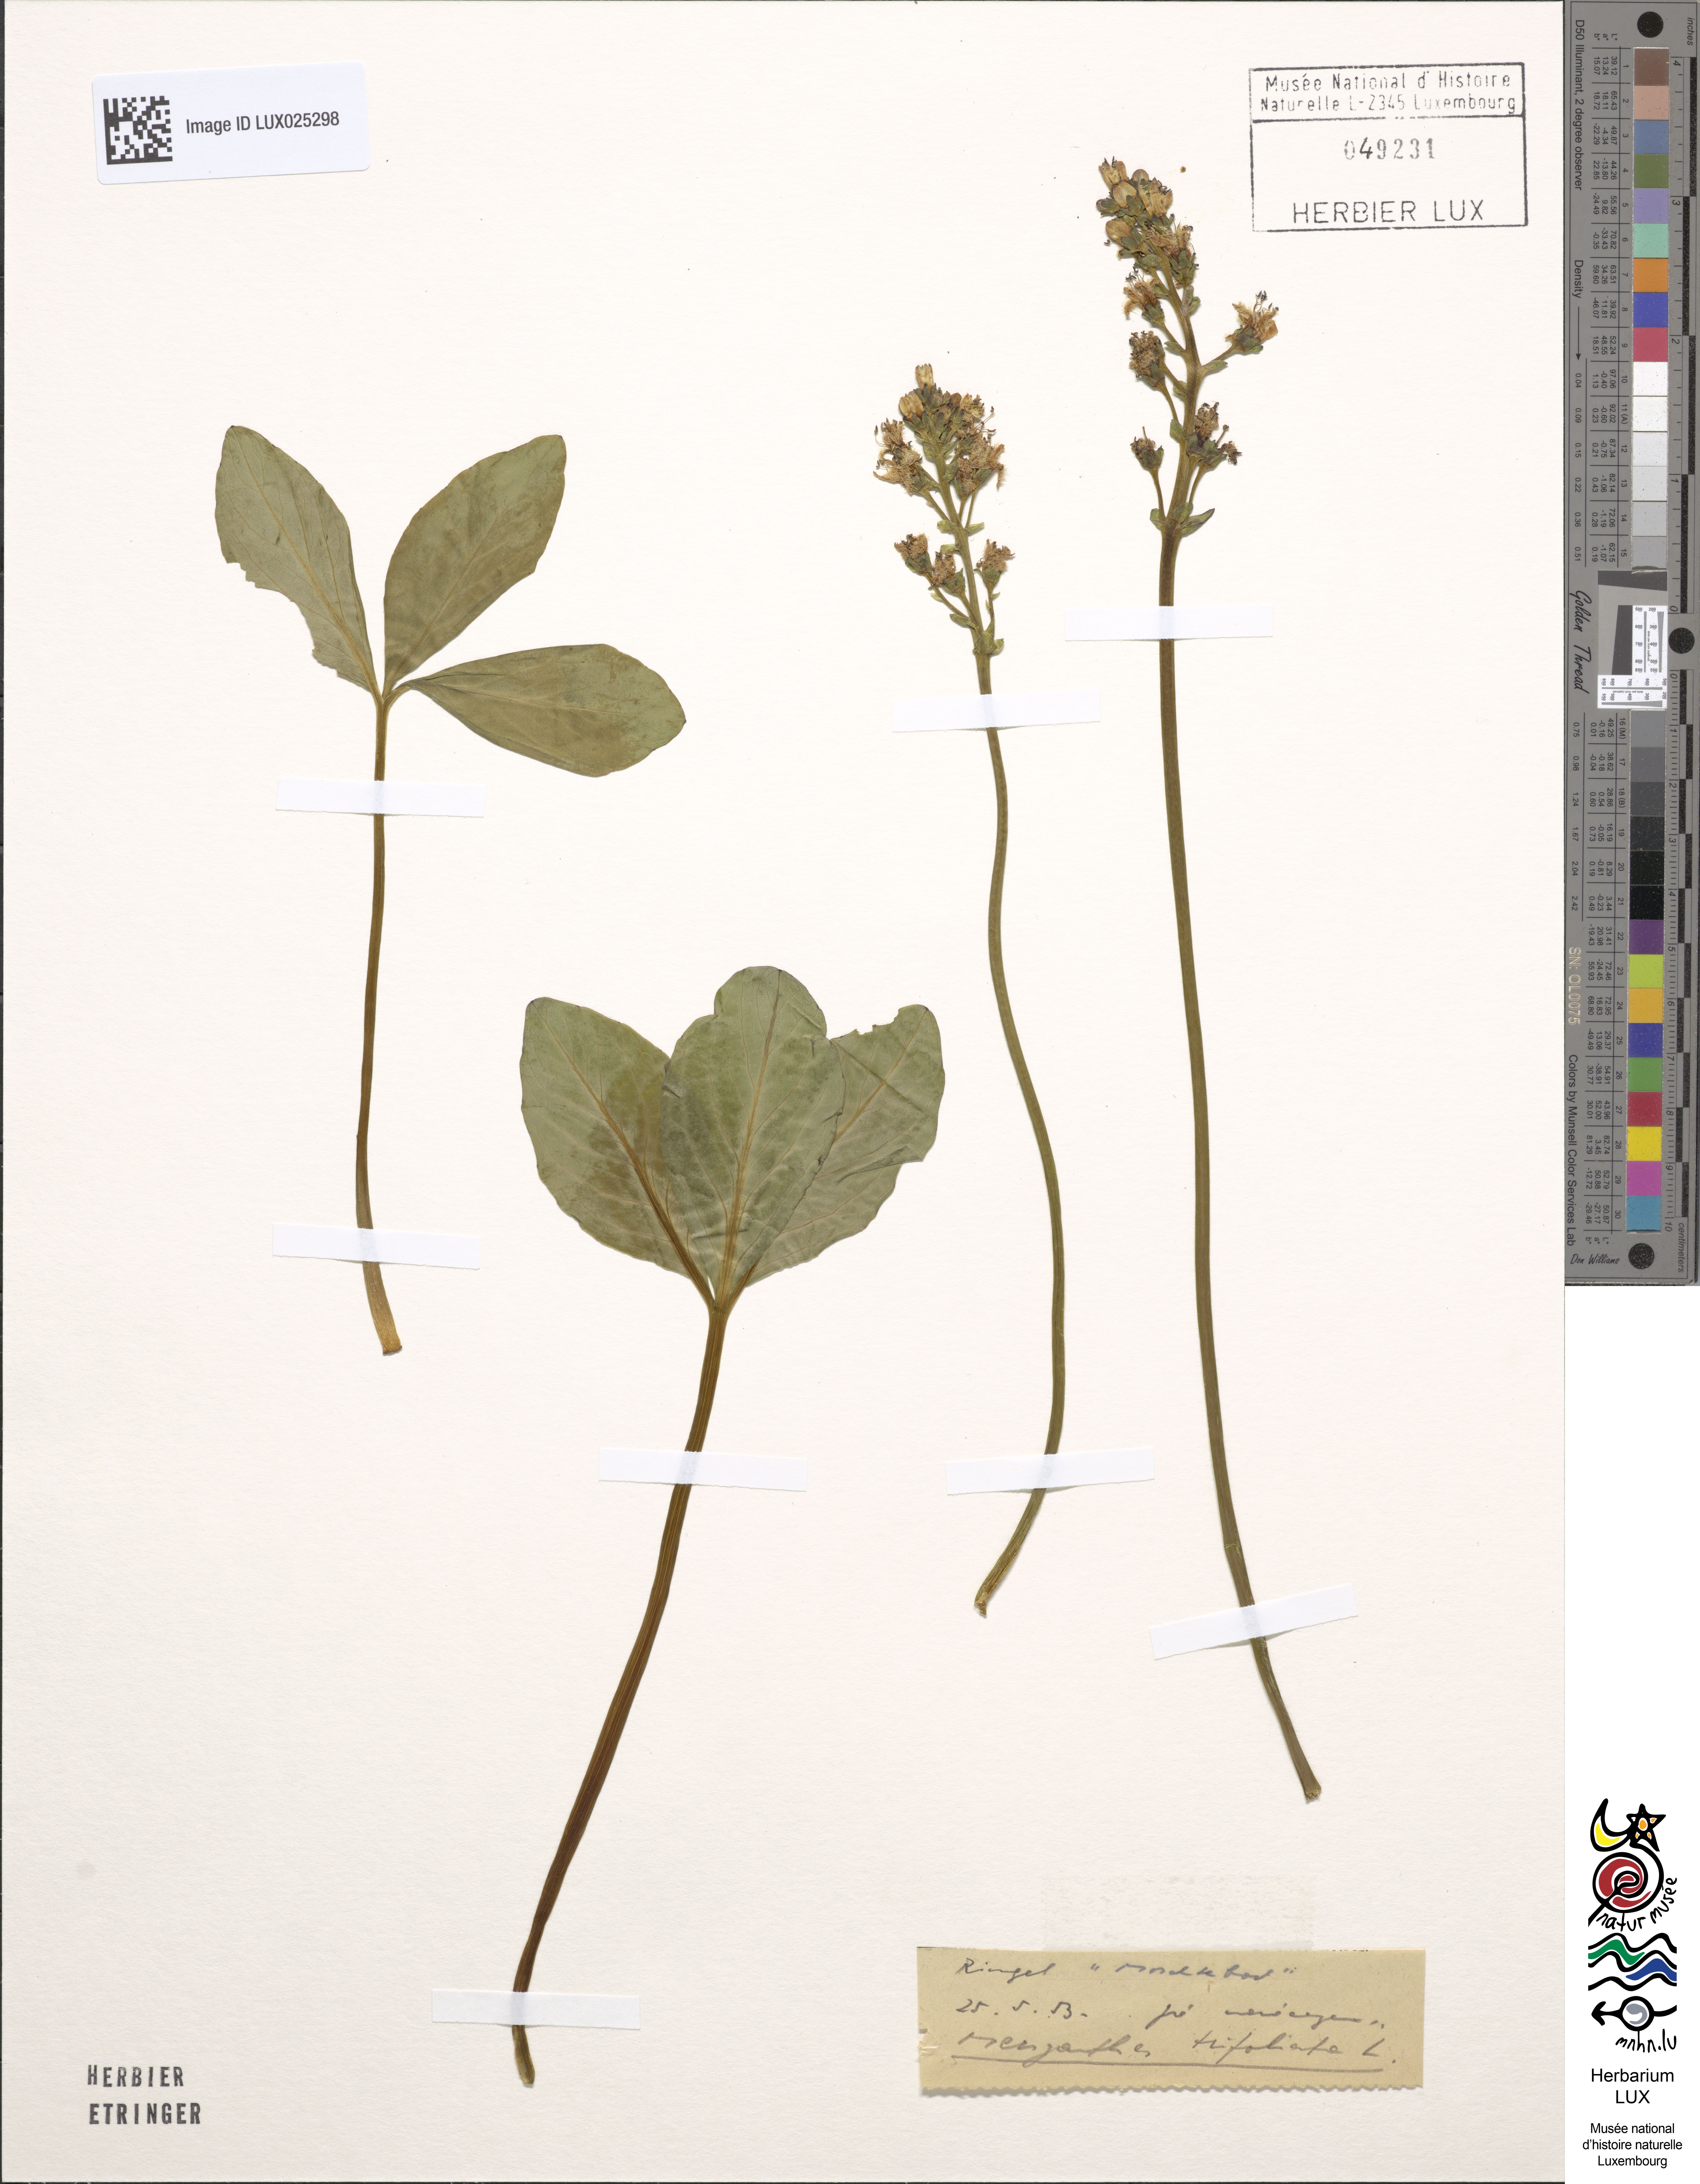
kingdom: Plantae
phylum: Tracheophyta
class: Magnoliopsida
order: Asterales
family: Menyanthaceae
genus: Menyanthes
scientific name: Menyanthes trifoliata
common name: Bogbean
